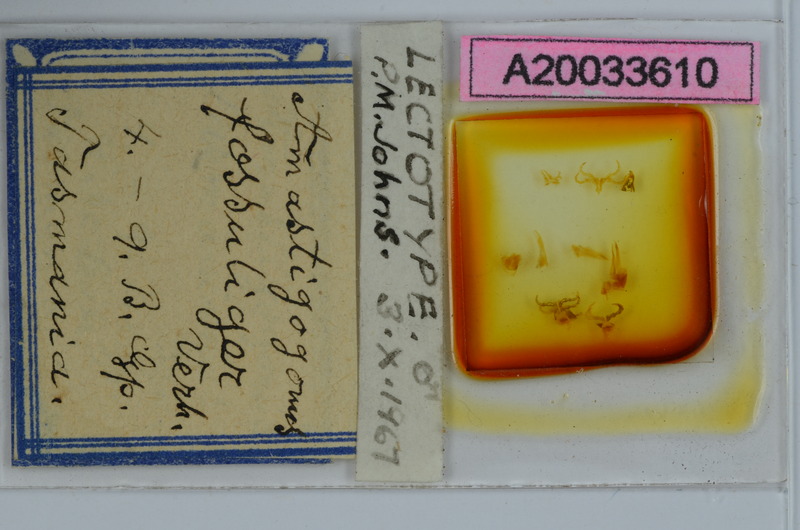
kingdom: Animalia
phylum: Arthropoda
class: Diplopoda
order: Spirostreptida
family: Iulomorphidae
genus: Amastigogonus
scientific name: Amastigogonus fossuliger
